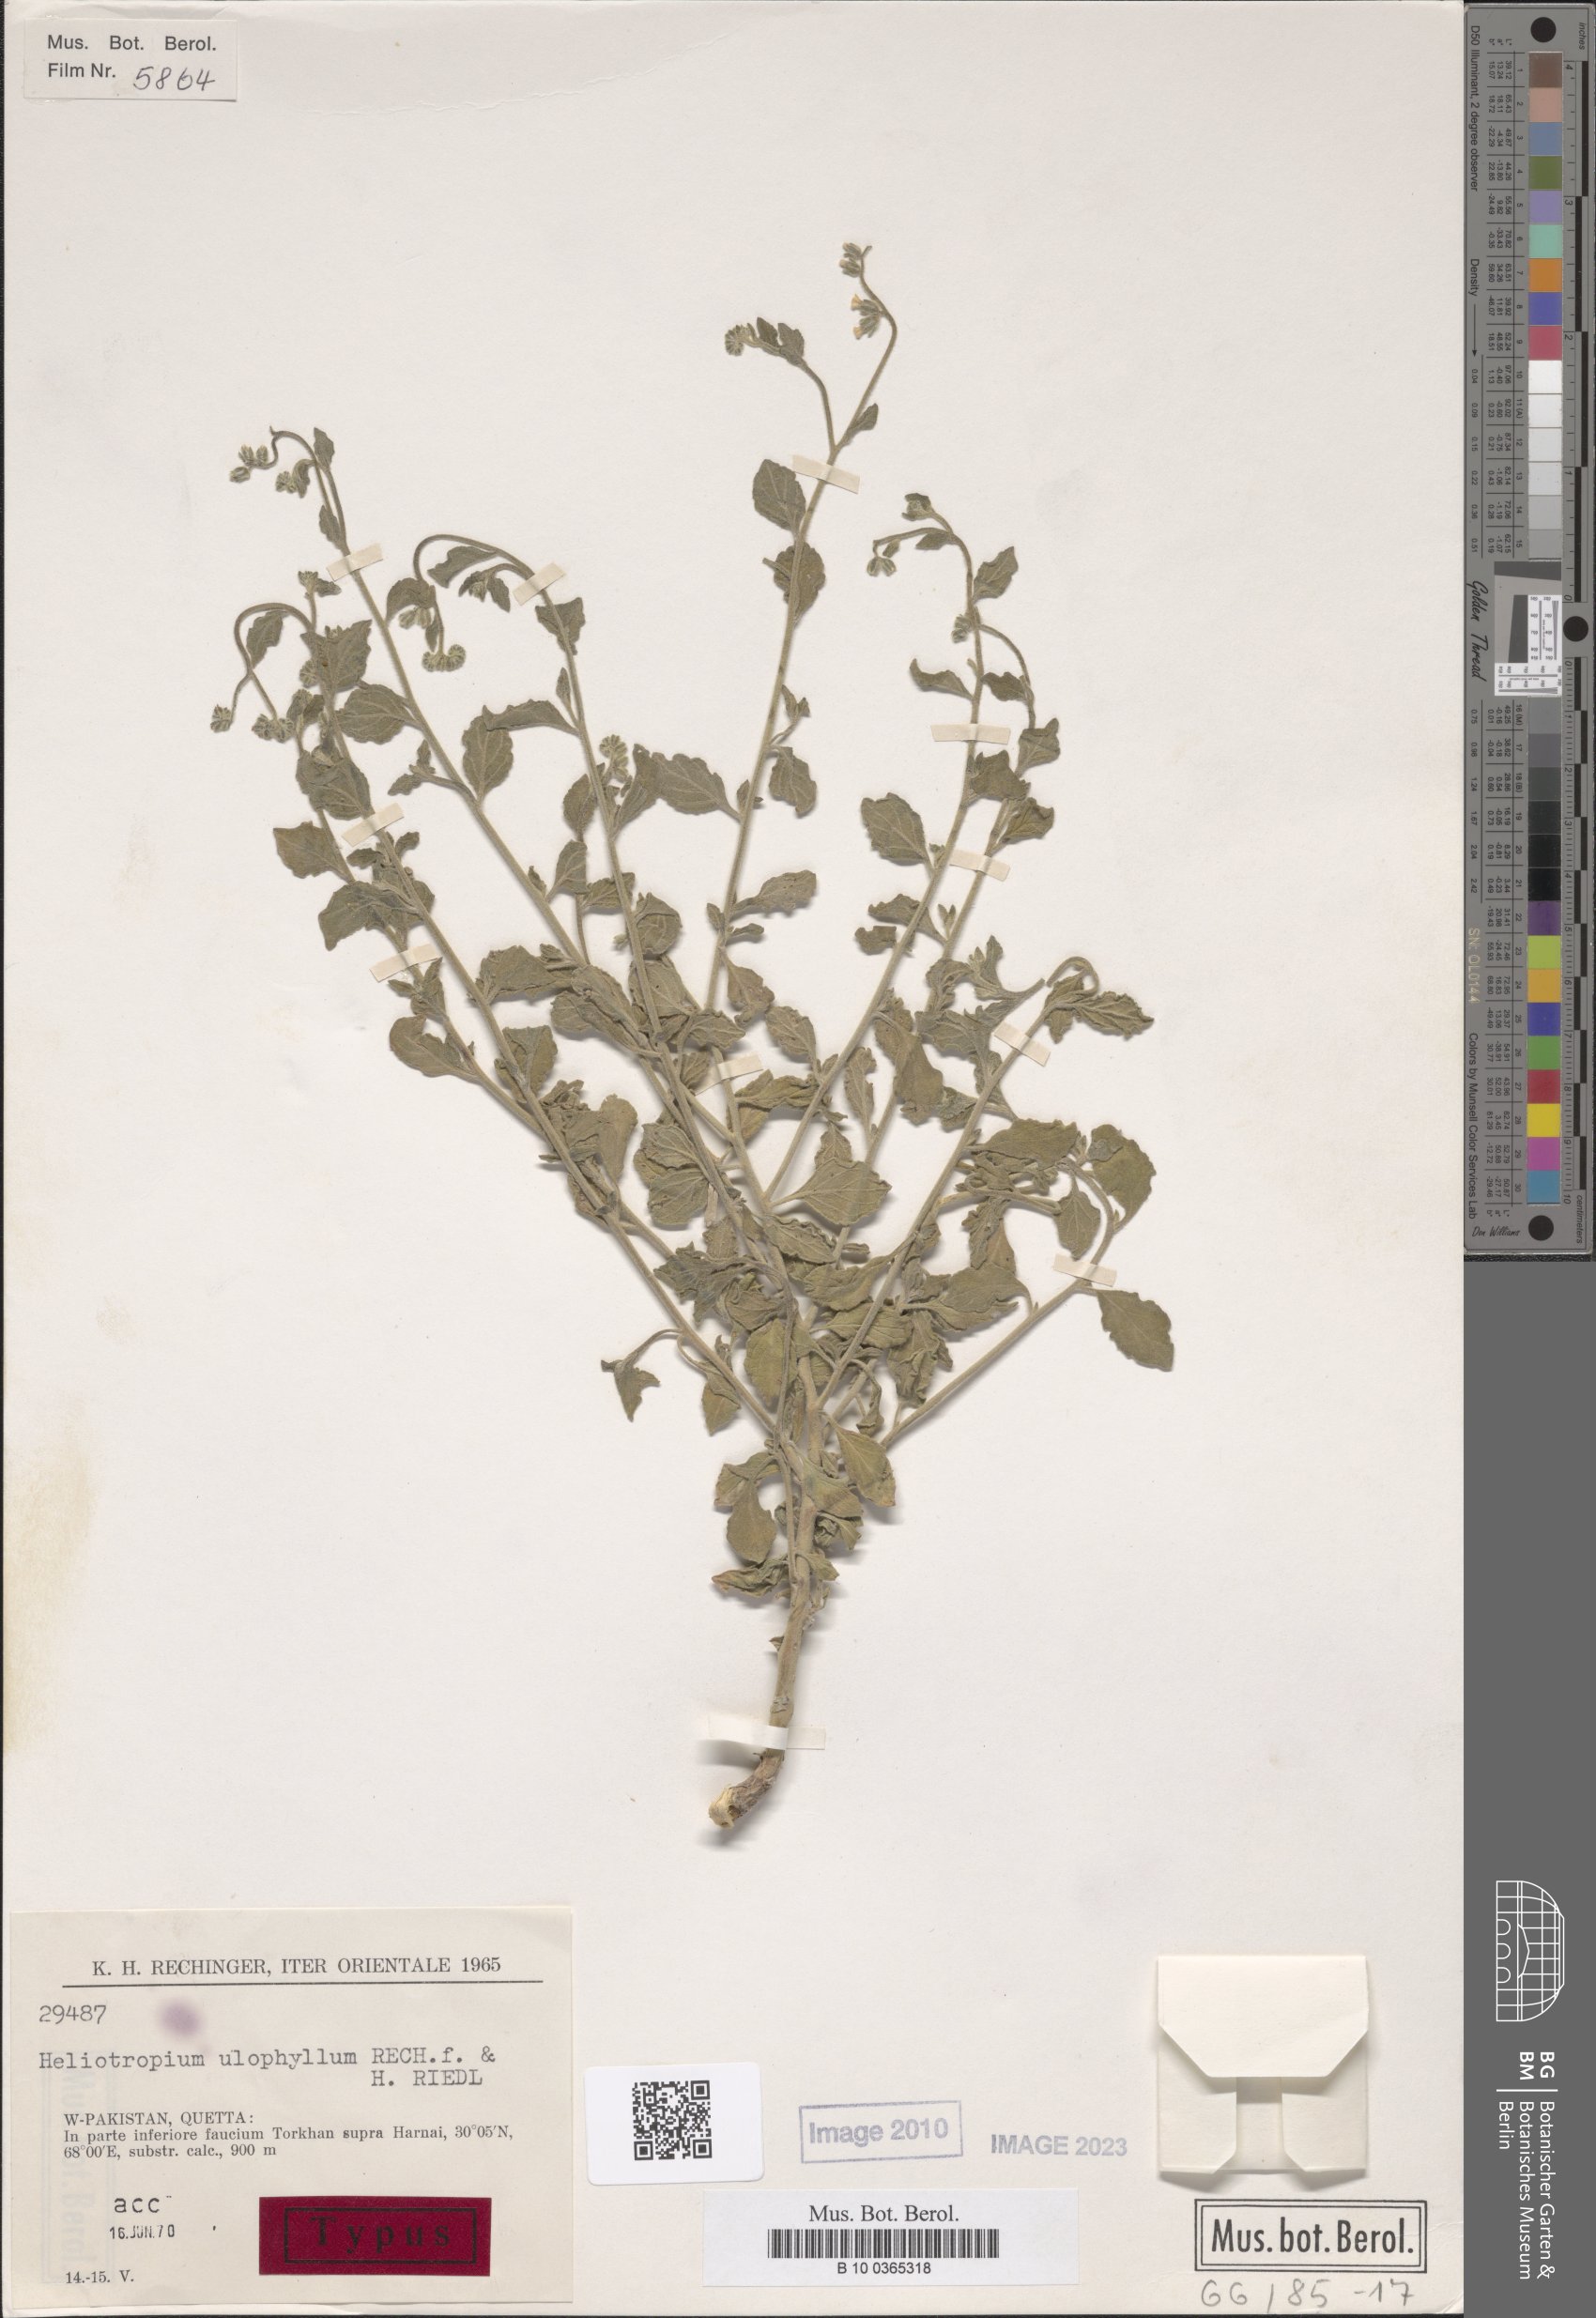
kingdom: Plantae
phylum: Tracheophyta
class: Magnoliopsida
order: Boraginales
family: Heliotropiaceae
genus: Heliotropium
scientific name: Heliotropium ulophyllum
